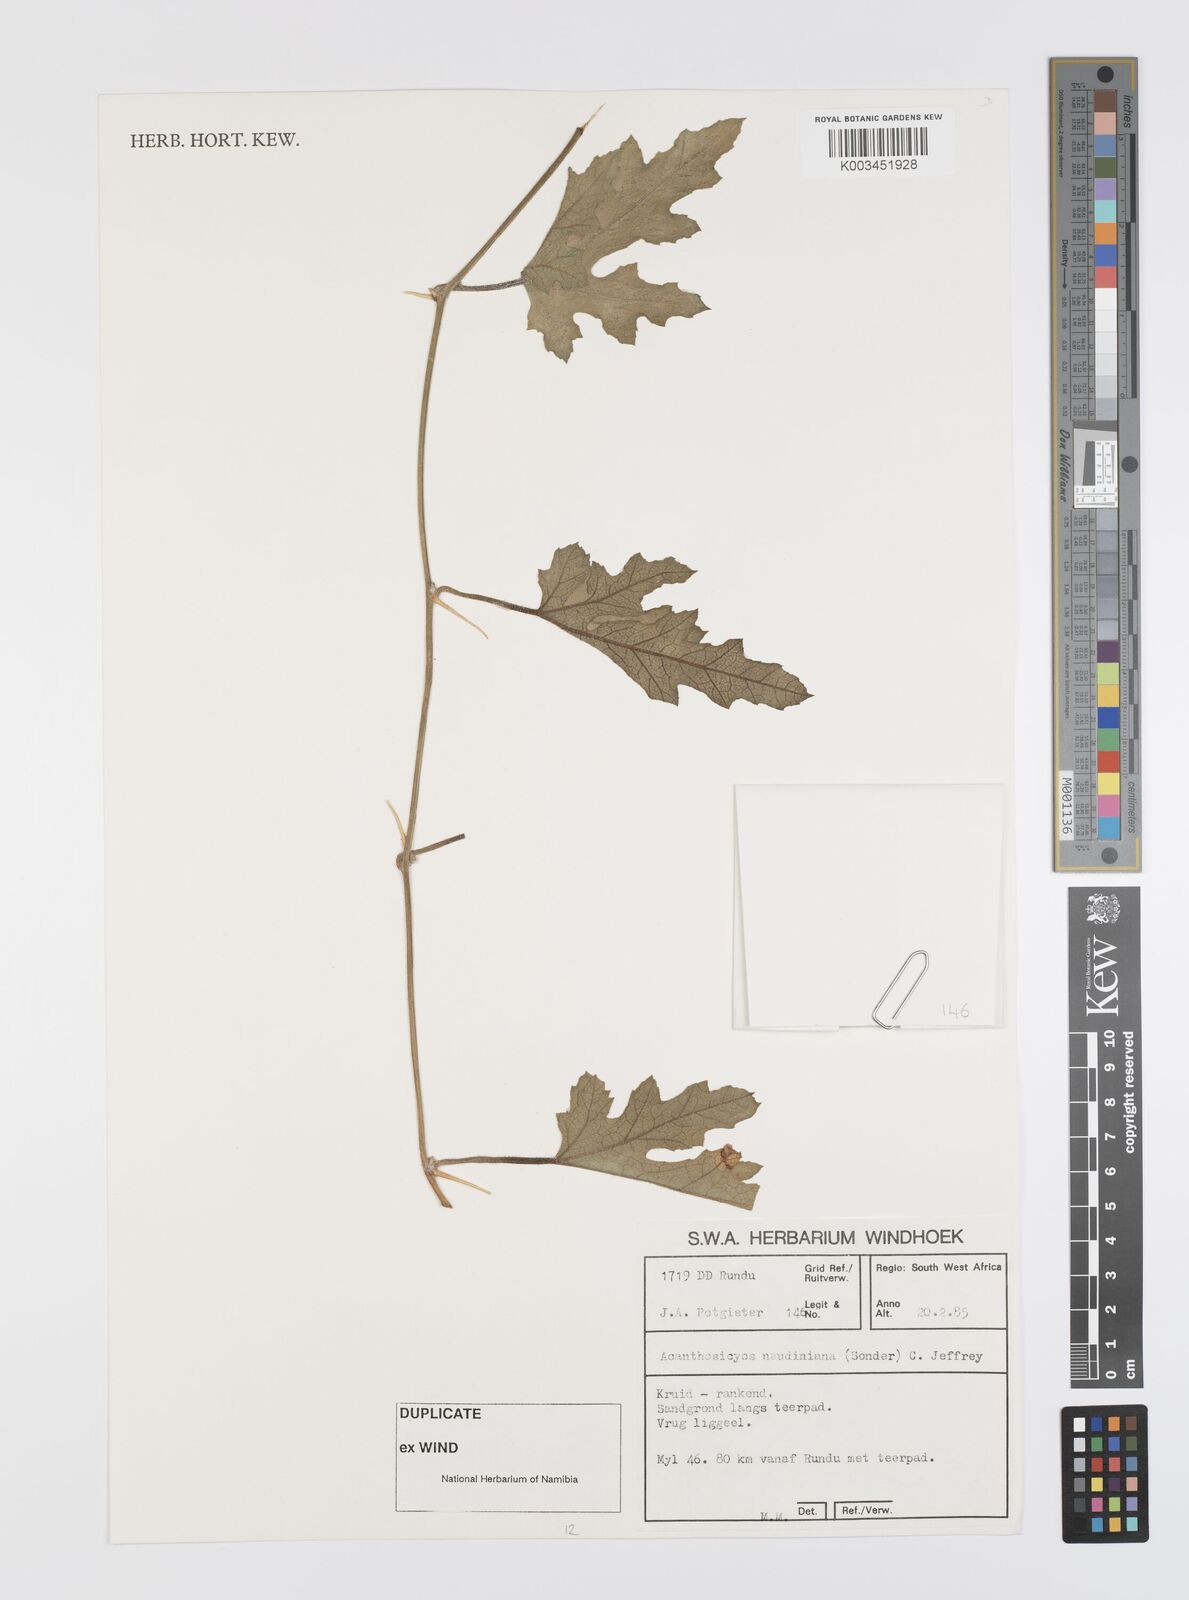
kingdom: Plantae
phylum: Tracheophyta
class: Magnoliopsida
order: Cucurbitales
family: Cucurbitaceae
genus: Citrullus
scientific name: Citrullus naudinianus
